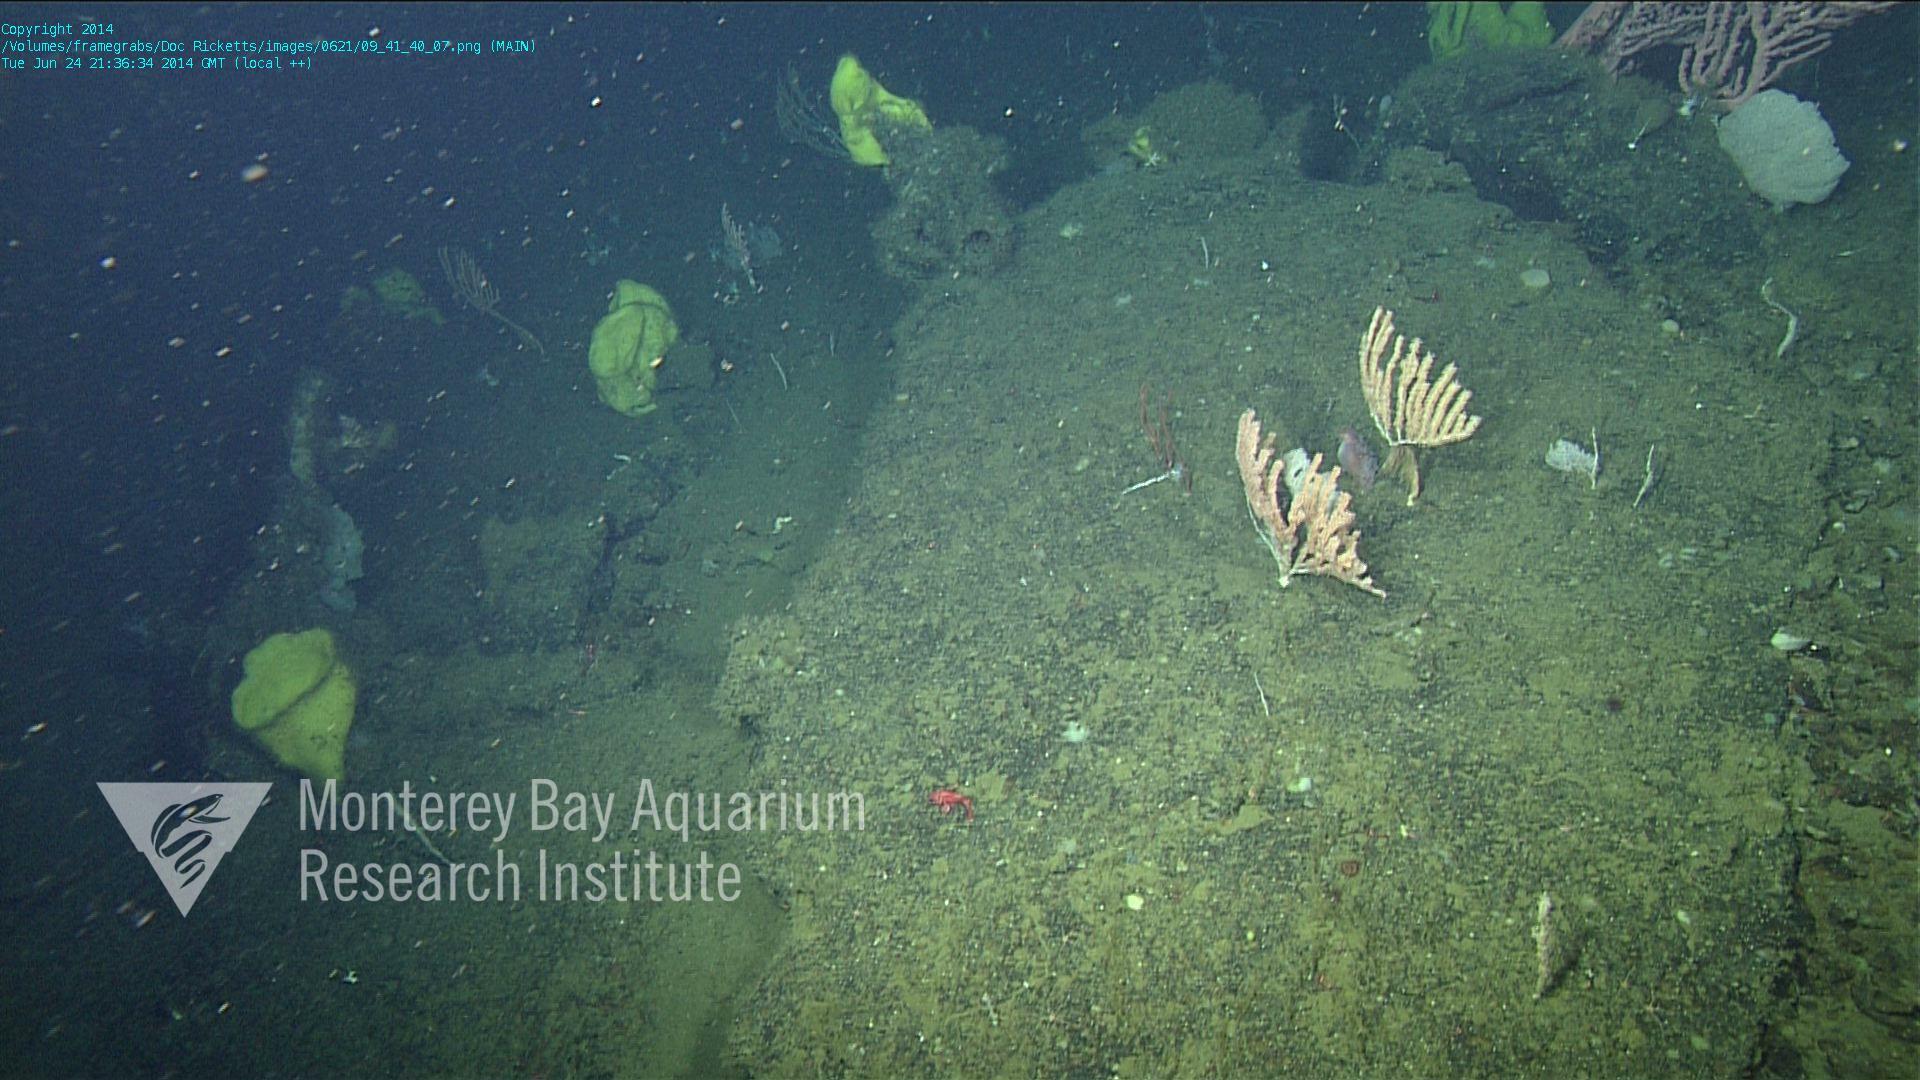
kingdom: Animalia
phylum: Cnidaria
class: Anthozoa
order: Scleralcyonacea
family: Keratoisididae
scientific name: Keratoisididae
